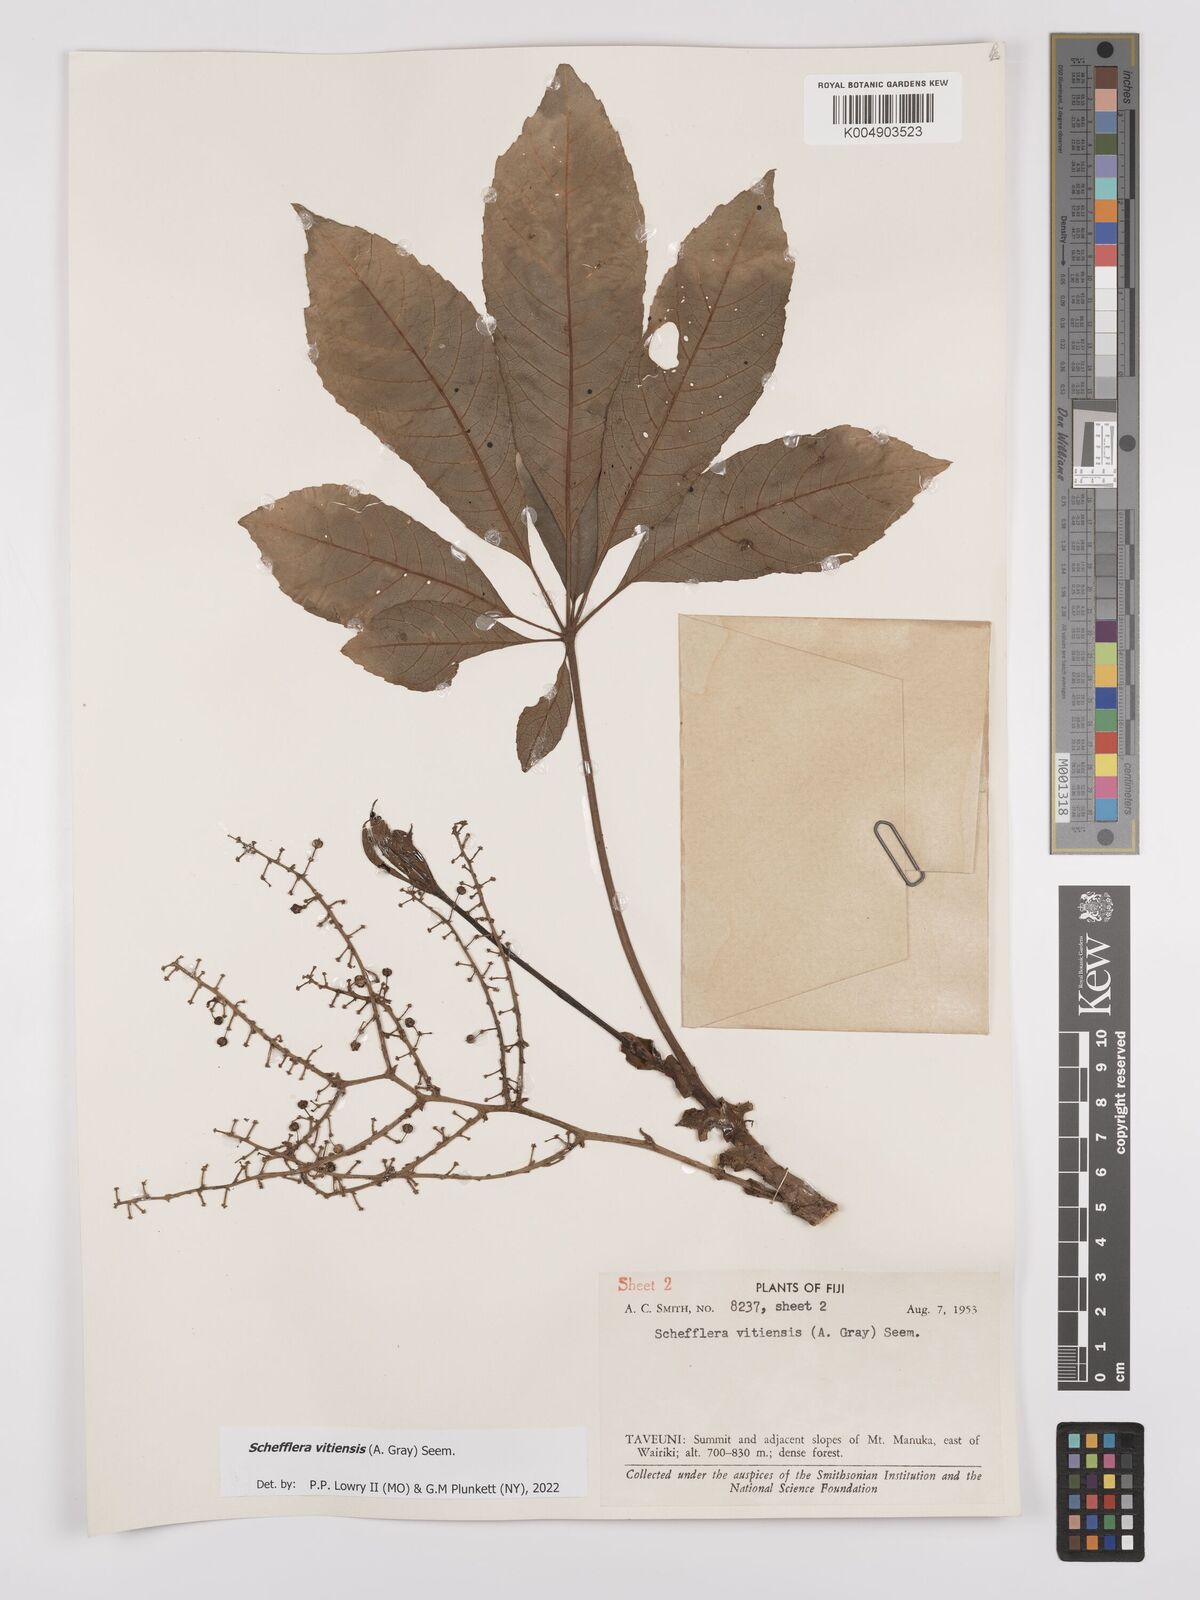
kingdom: Plantae
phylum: Tracheophyta
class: Magnoliopsida
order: Apiales
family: Araliaceae
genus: Schefflera
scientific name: Schefflera vitiensis
